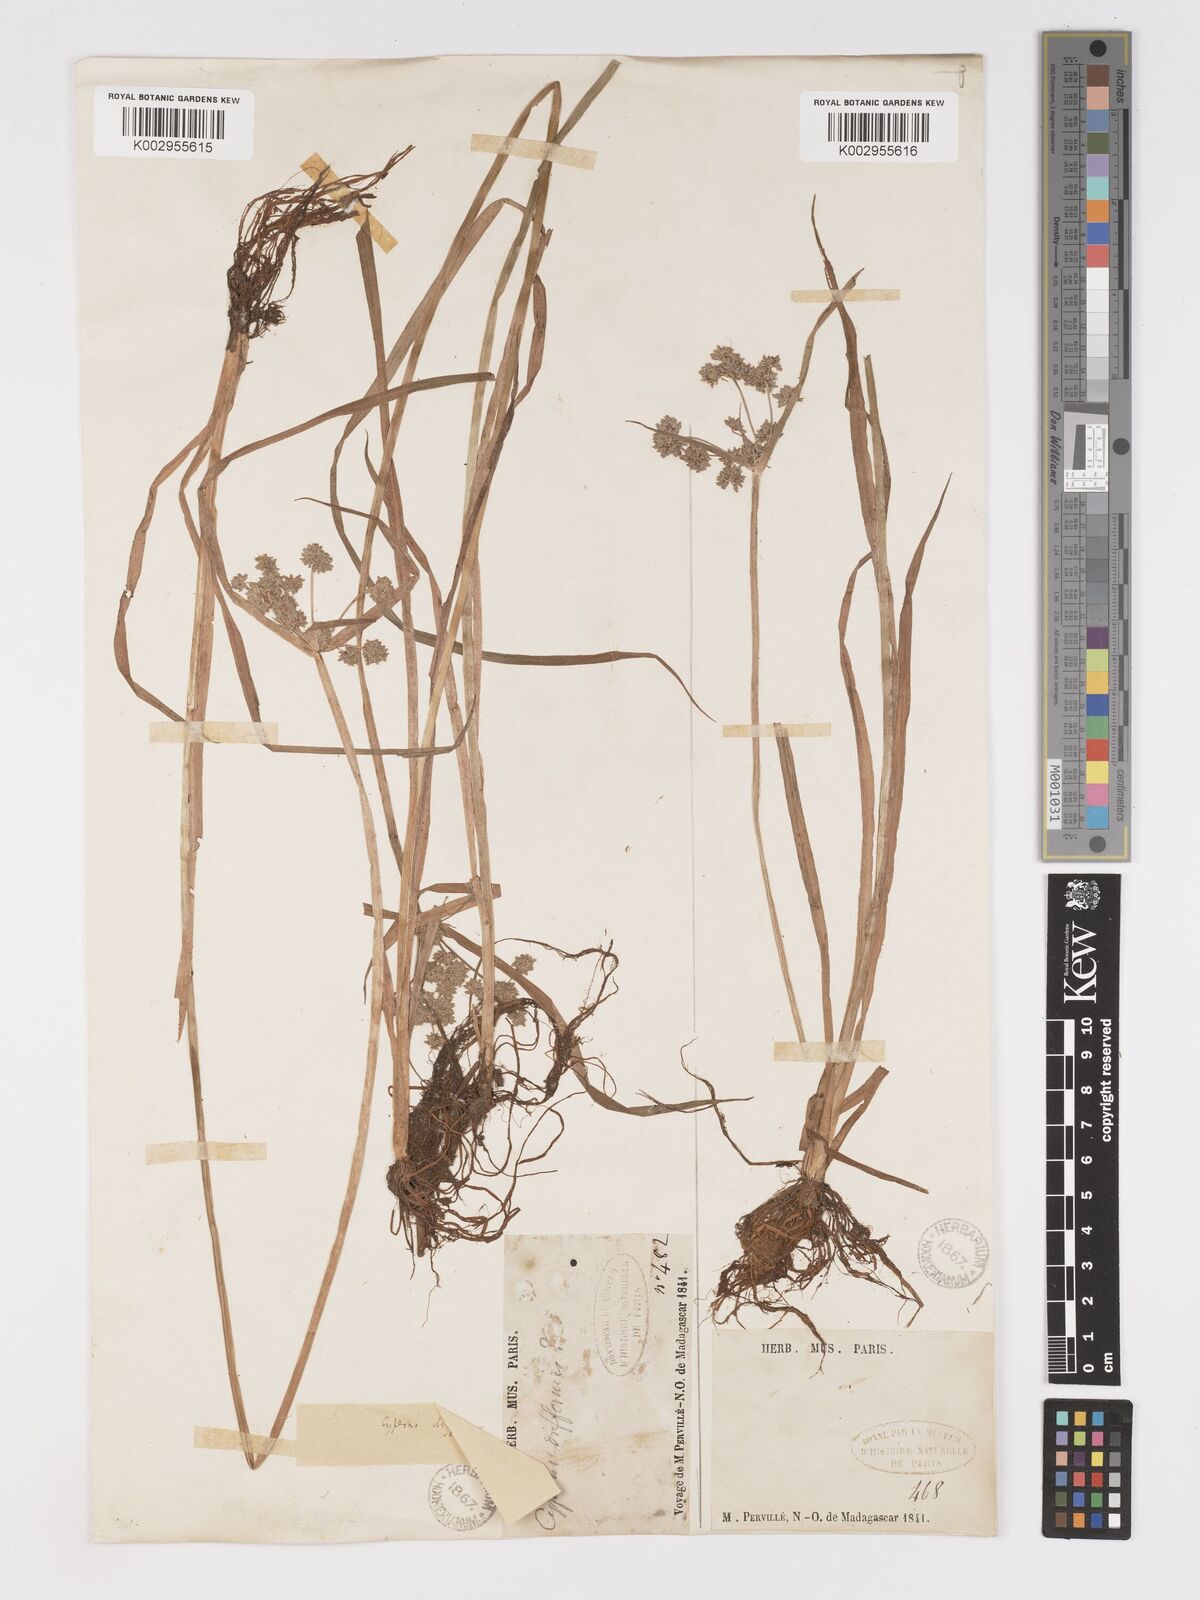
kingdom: Plantae
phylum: Tracheophyta
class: Liliopsida
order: Poales
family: Cyperaceae
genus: Cyperus
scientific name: Cyperus difformis
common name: Variable flatsedge
